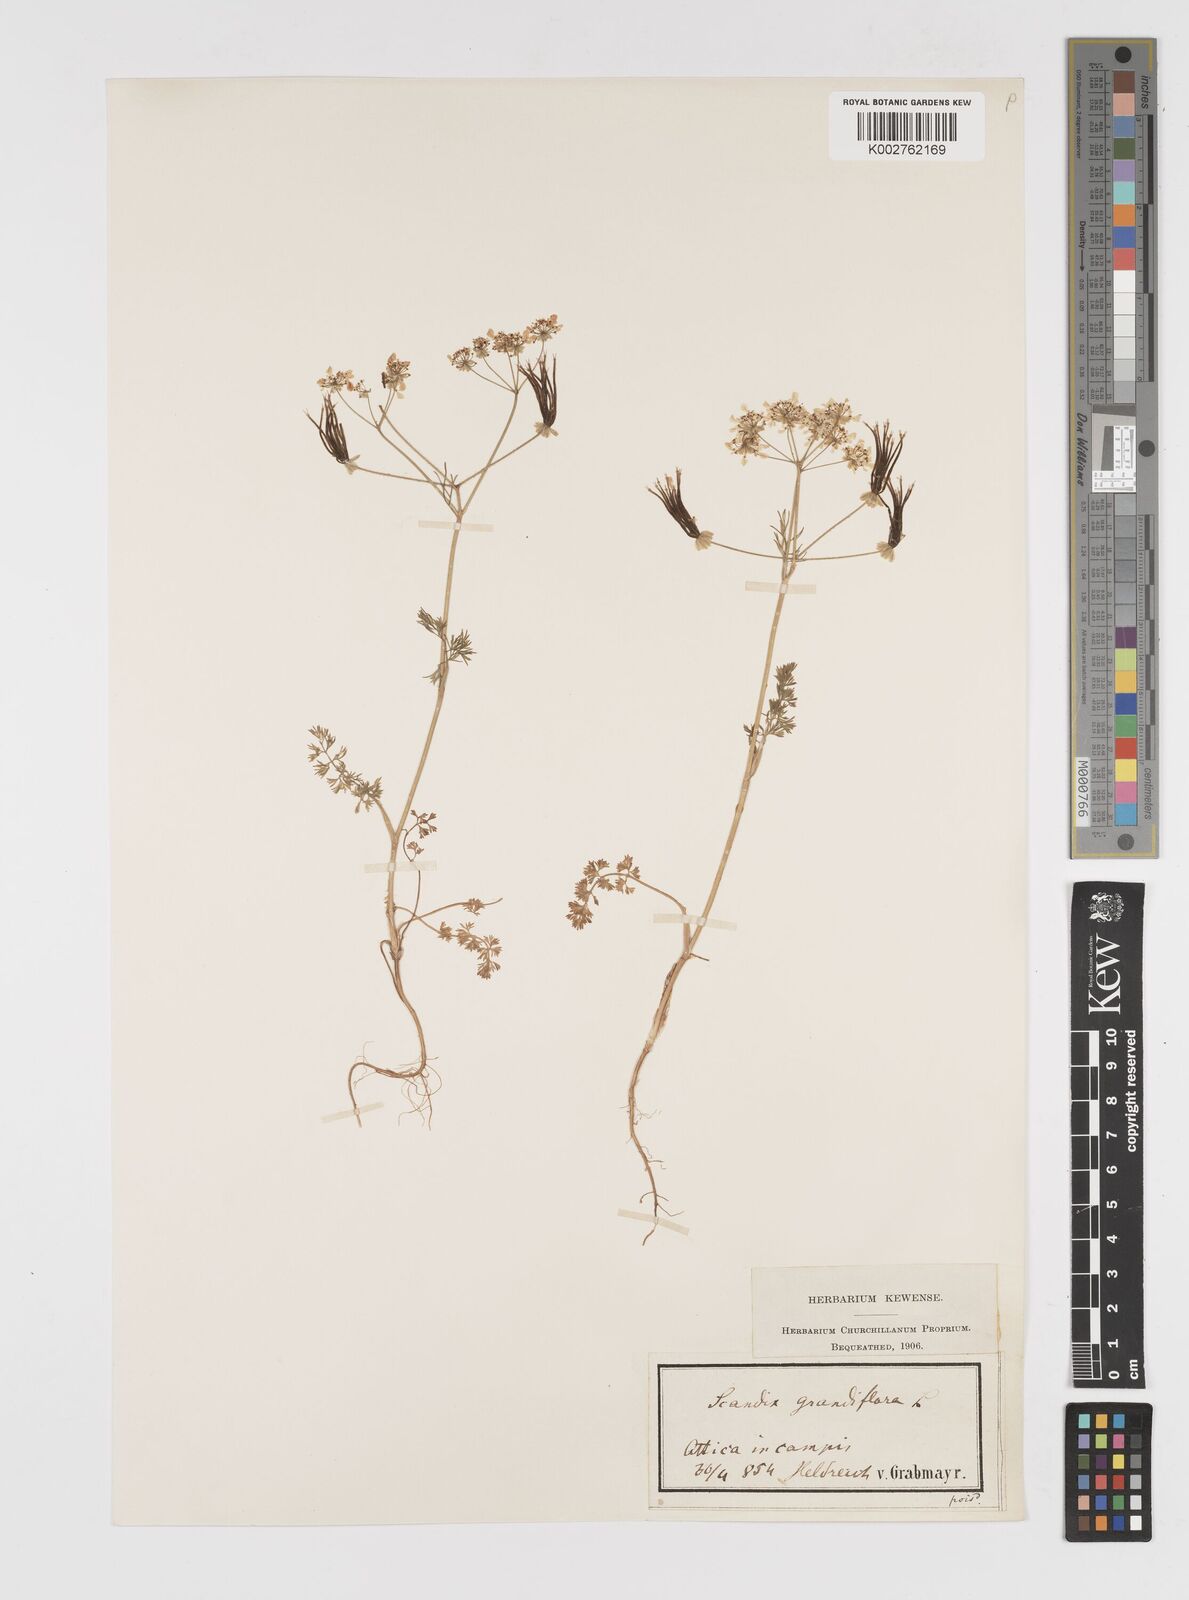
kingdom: Plantae
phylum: Tracheophyta
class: Magnoliopsida
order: Apiales
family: Apiaceae
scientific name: Apiaceae
